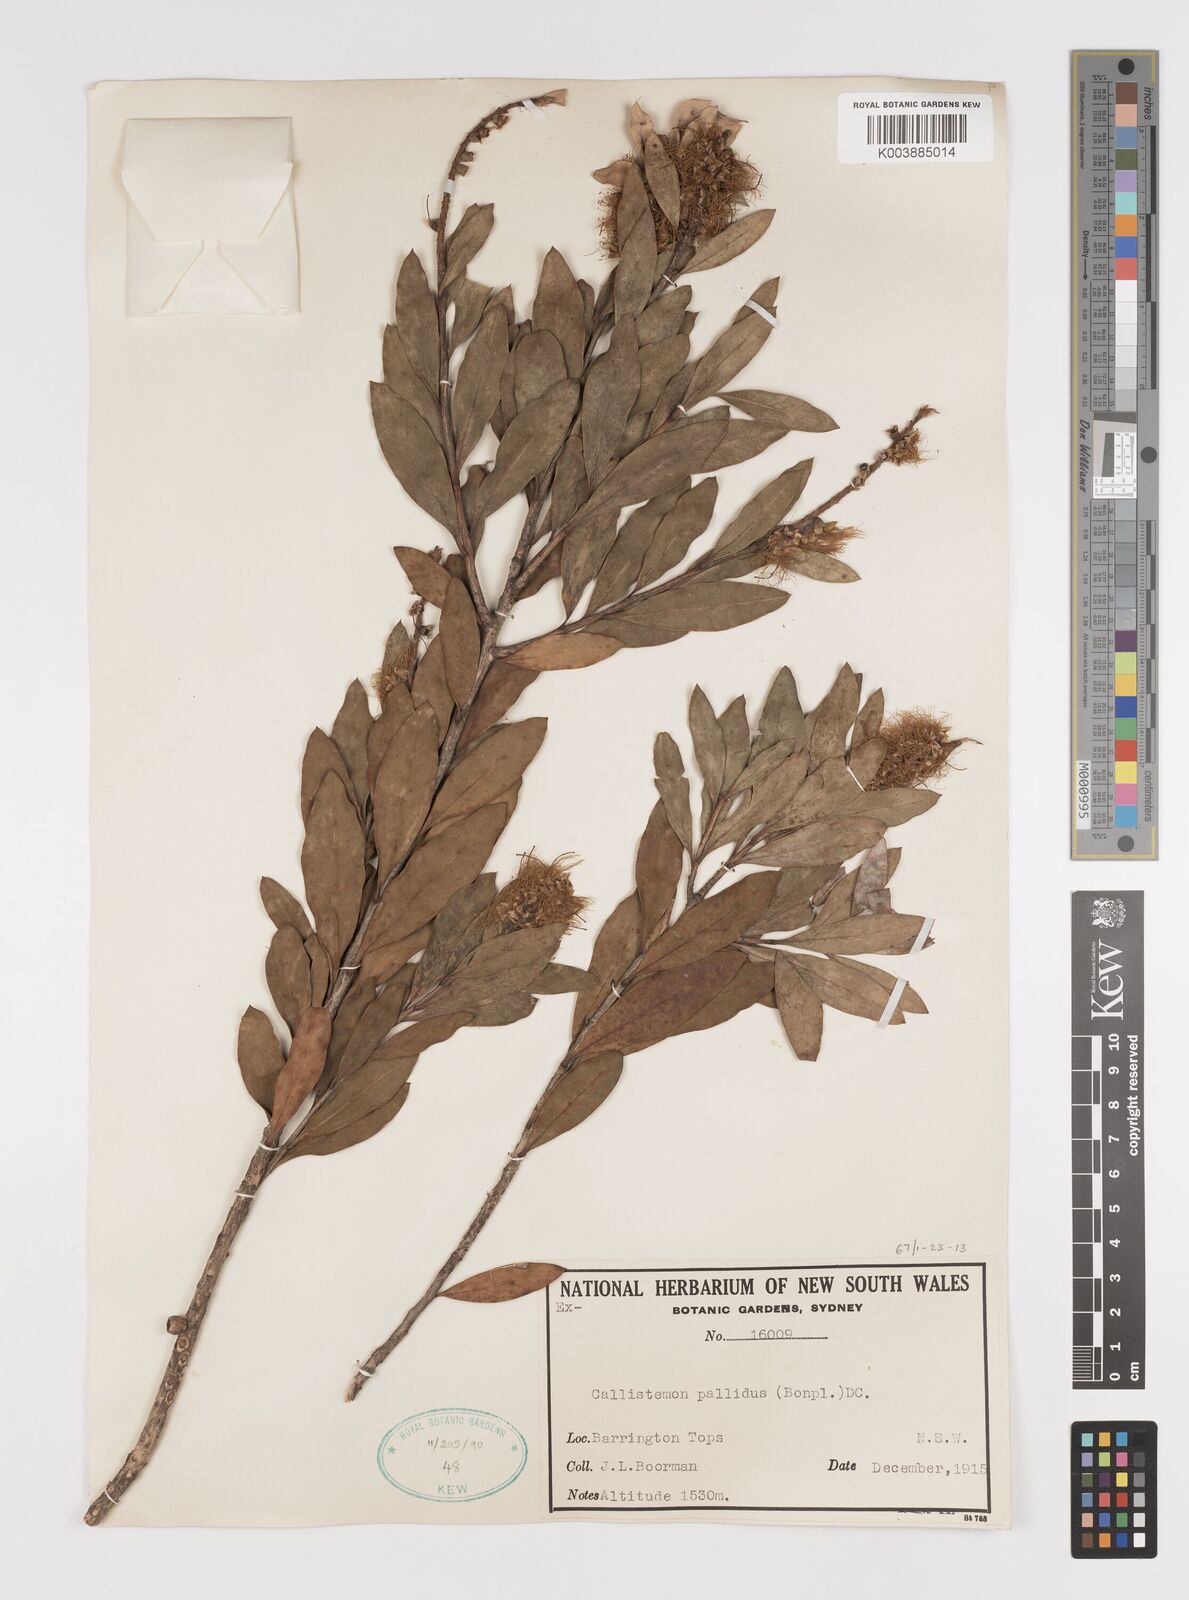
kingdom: Plantae
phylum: Tracheophyta
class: Magnoliopsida
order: Myrtales
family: Myrtaceae
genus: Melaleuca
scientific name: Melaleuca pallida
